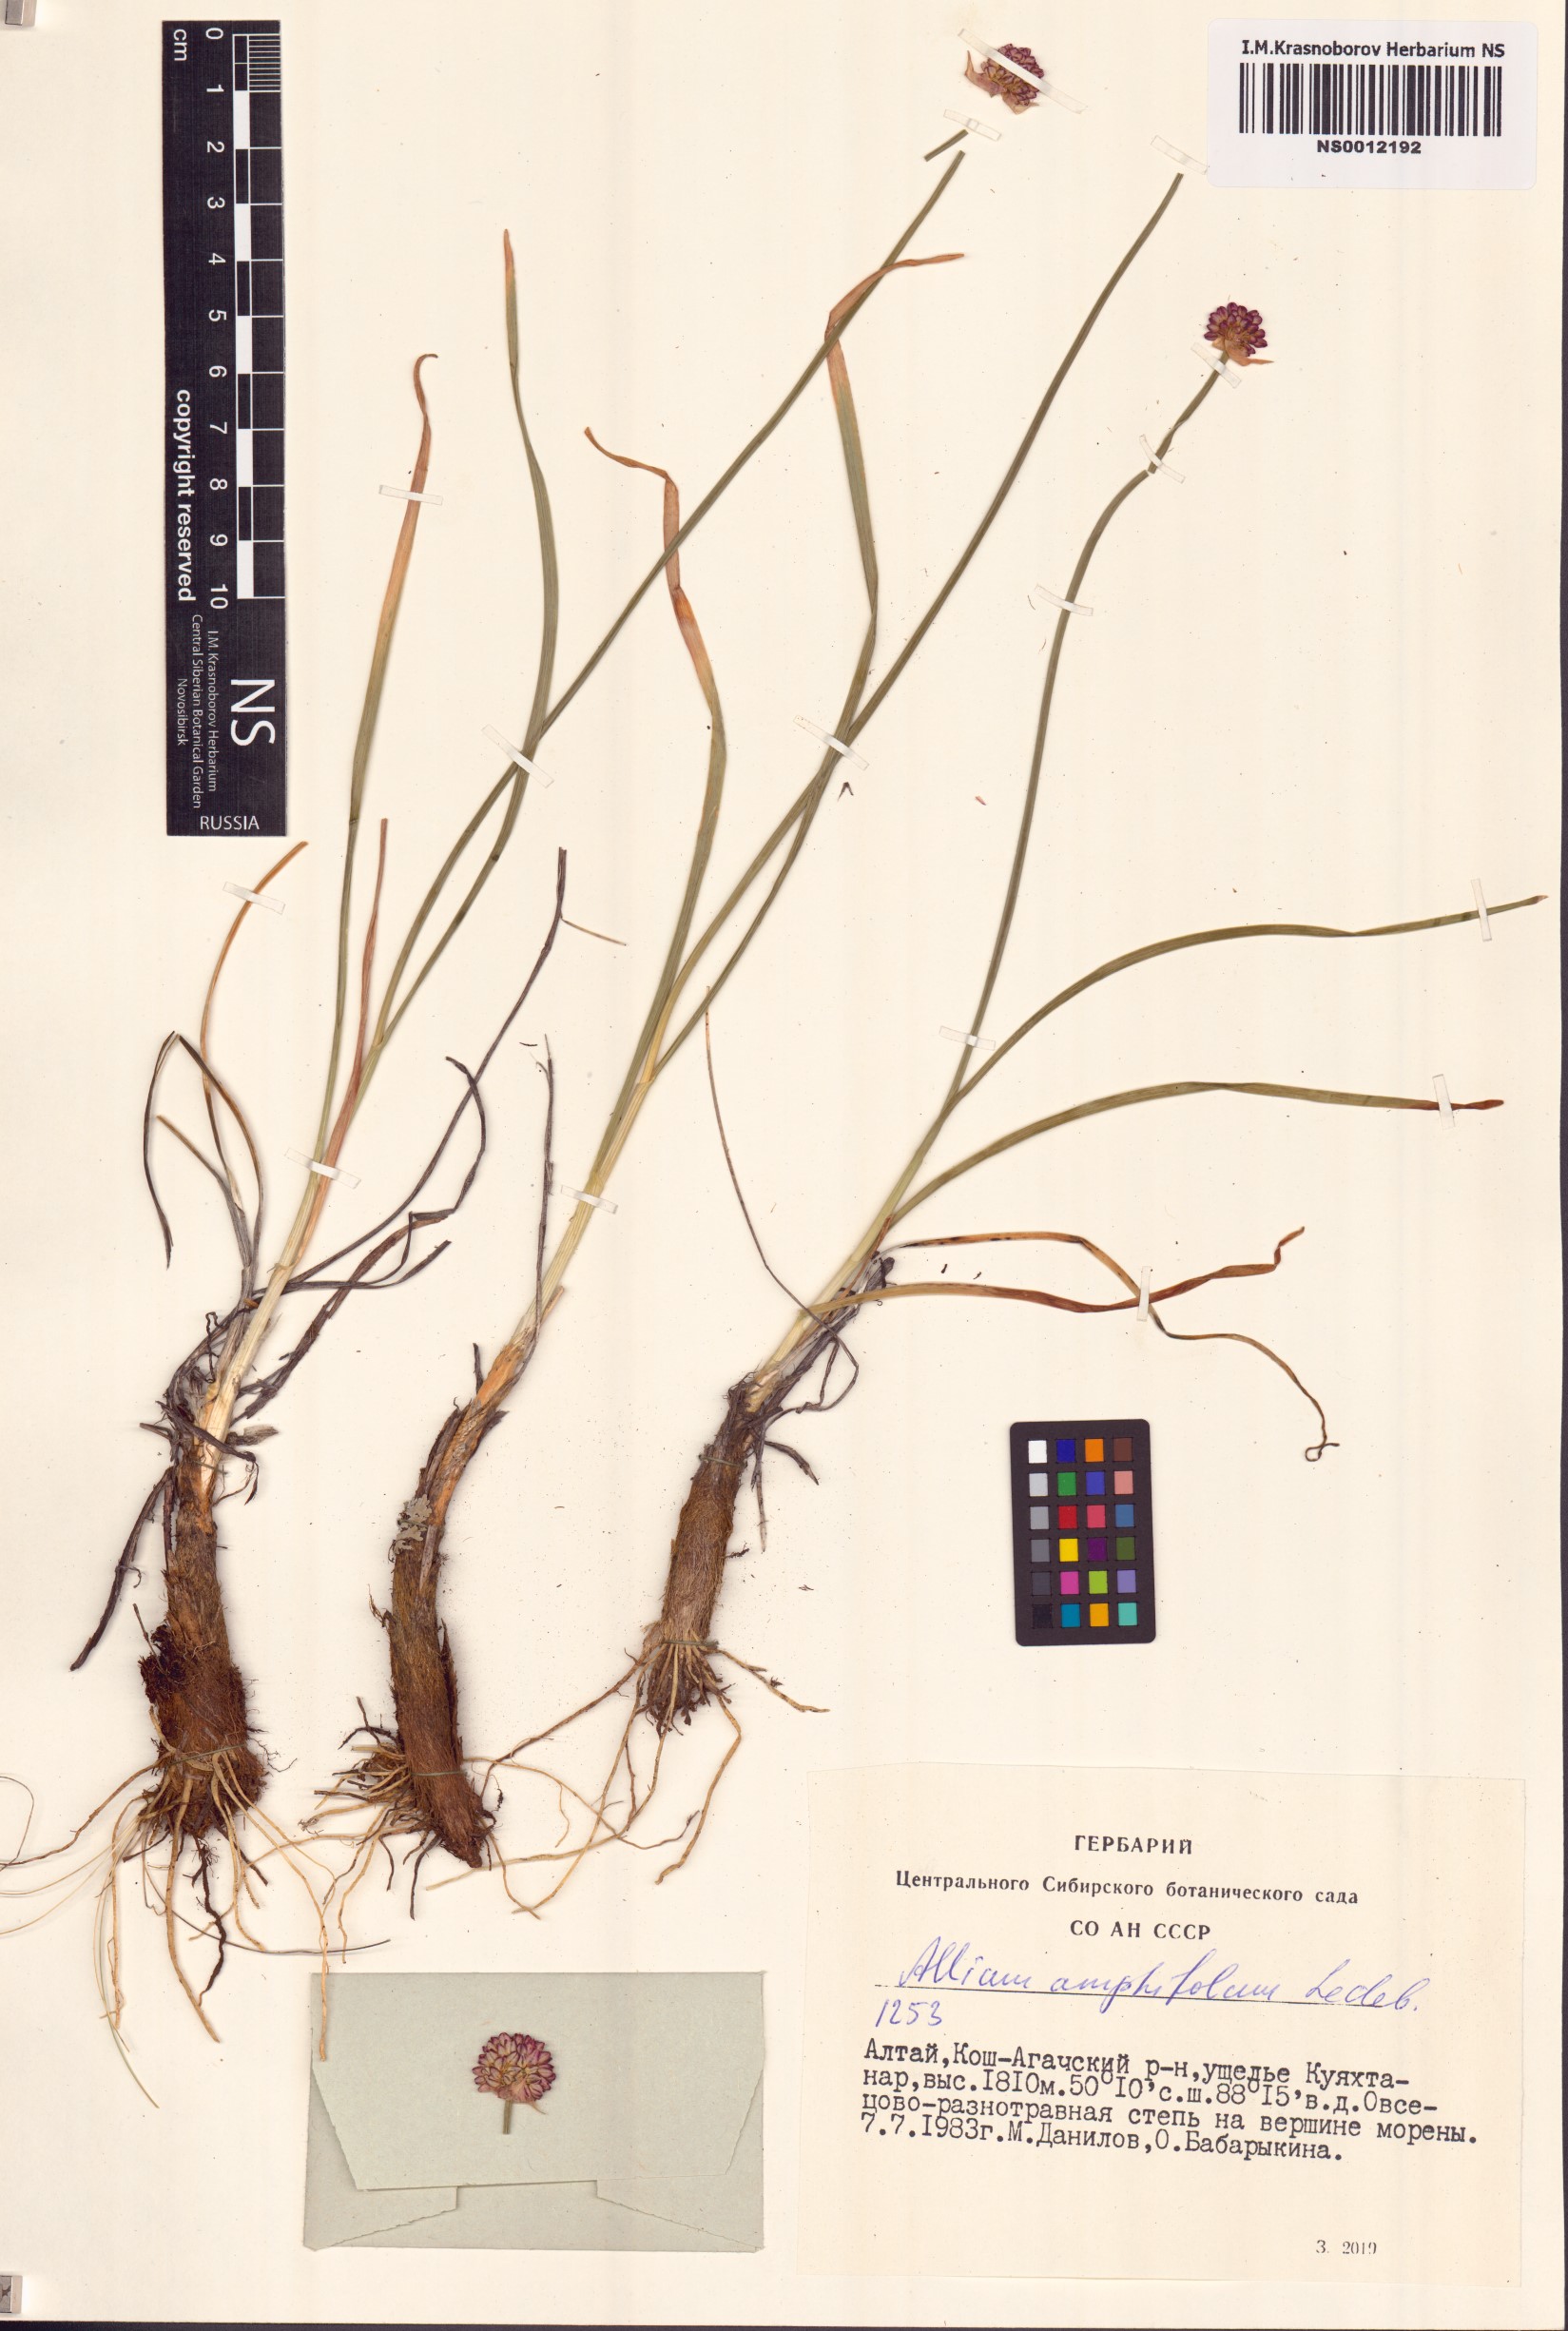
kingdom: Plantae
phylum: Tracheophyta
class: Liliopsida
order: Asparagales
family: Amaryllidaceae
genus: Allium
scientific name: Allium amphibolum
